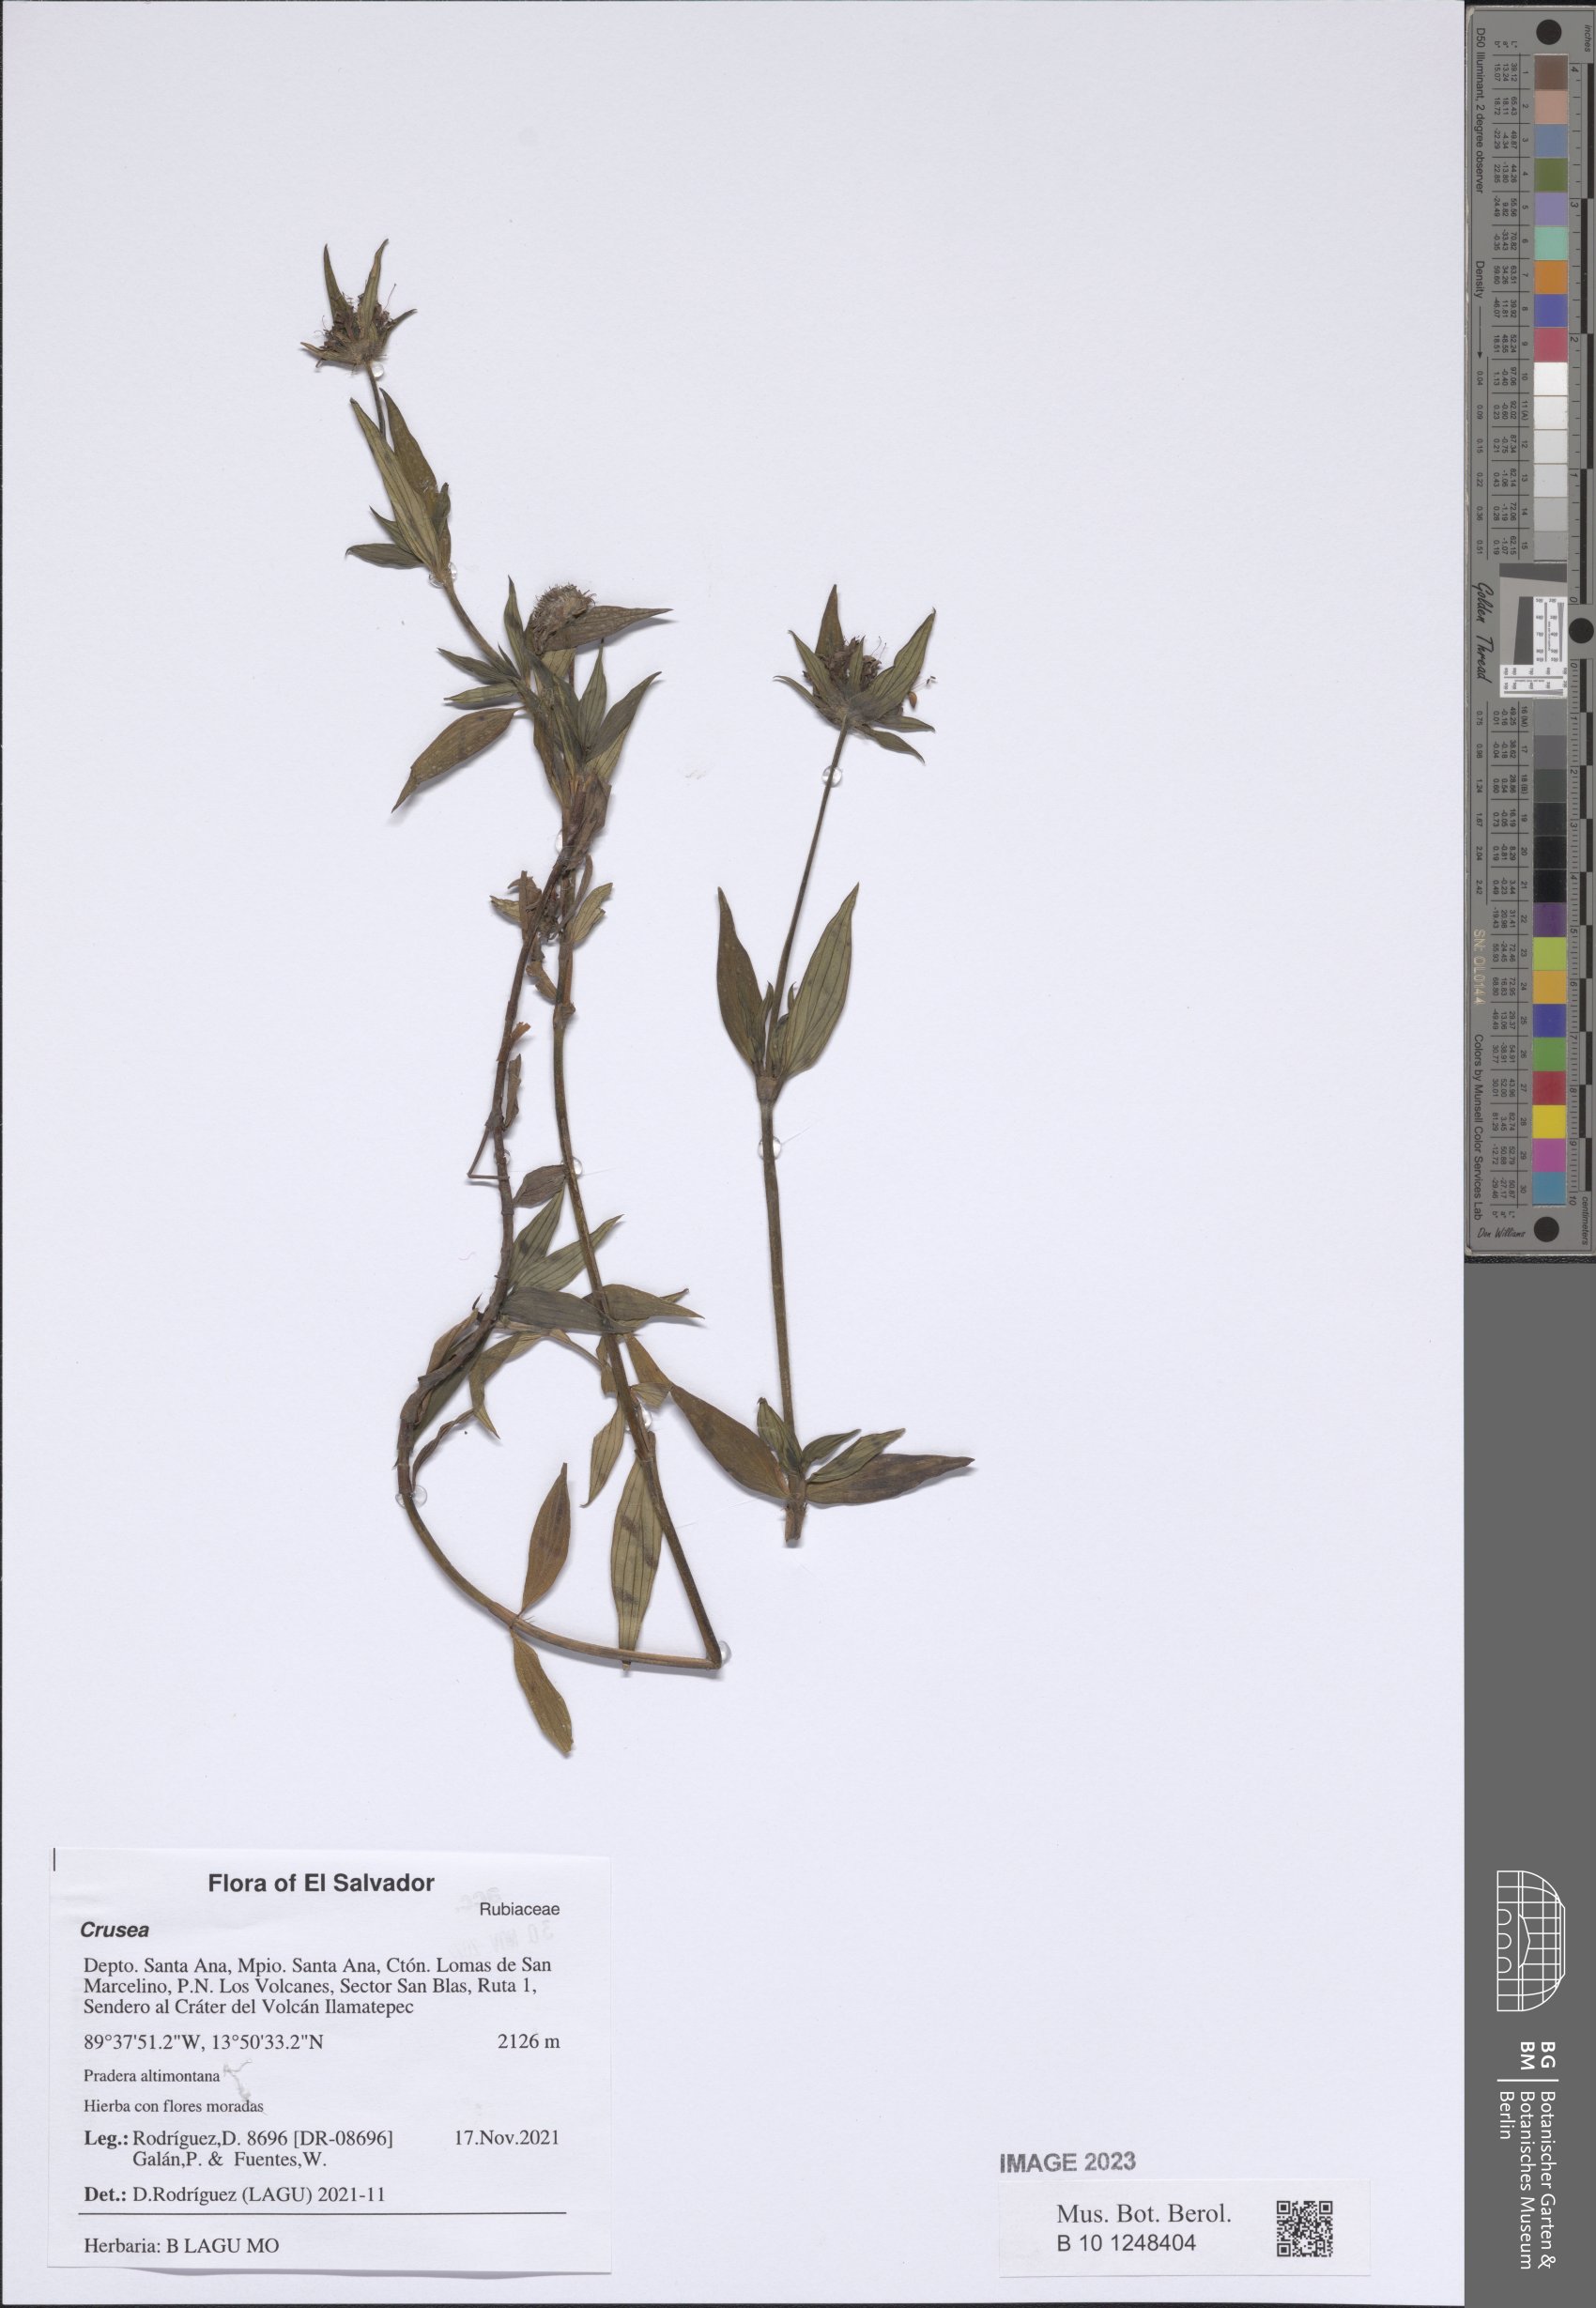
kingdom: Plantae
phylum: Tracheophyta
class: Magnoliopsida
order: Gentianales
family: Rubiaceae
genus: Crusea
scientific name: Crusea calocephala
